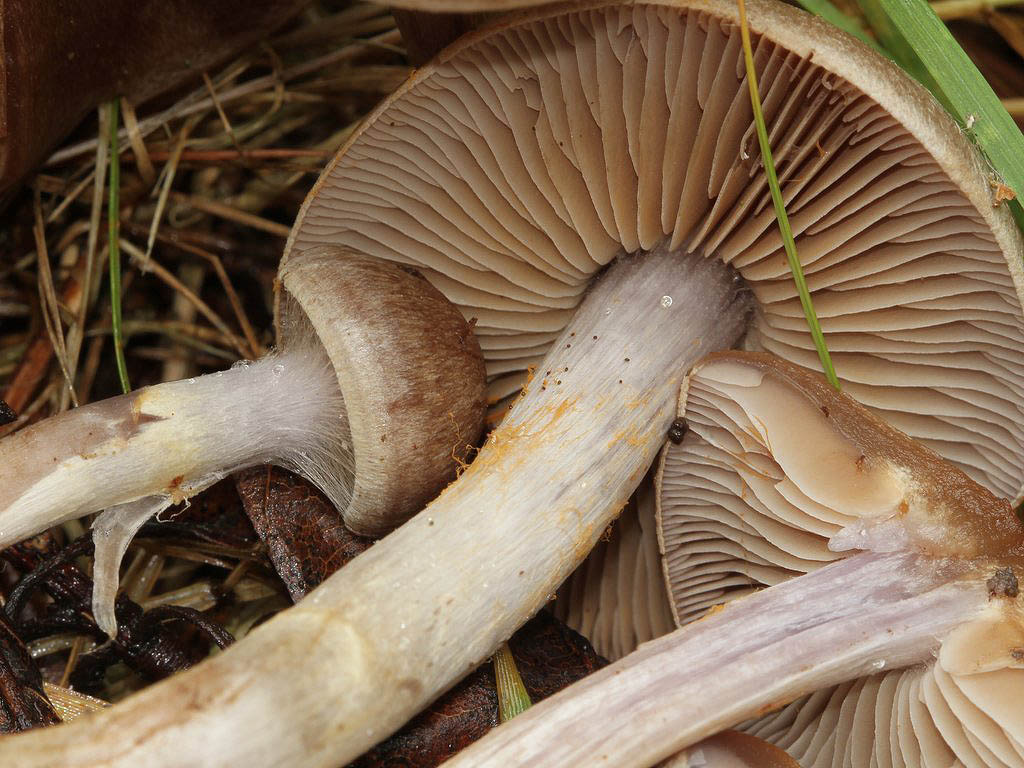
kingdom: Fungi
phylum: Basidiomycota
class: Agaricomycetes
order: Agaricales
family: Cortinariaceae
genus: Cortinarius
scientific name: Cortinarius valgus
